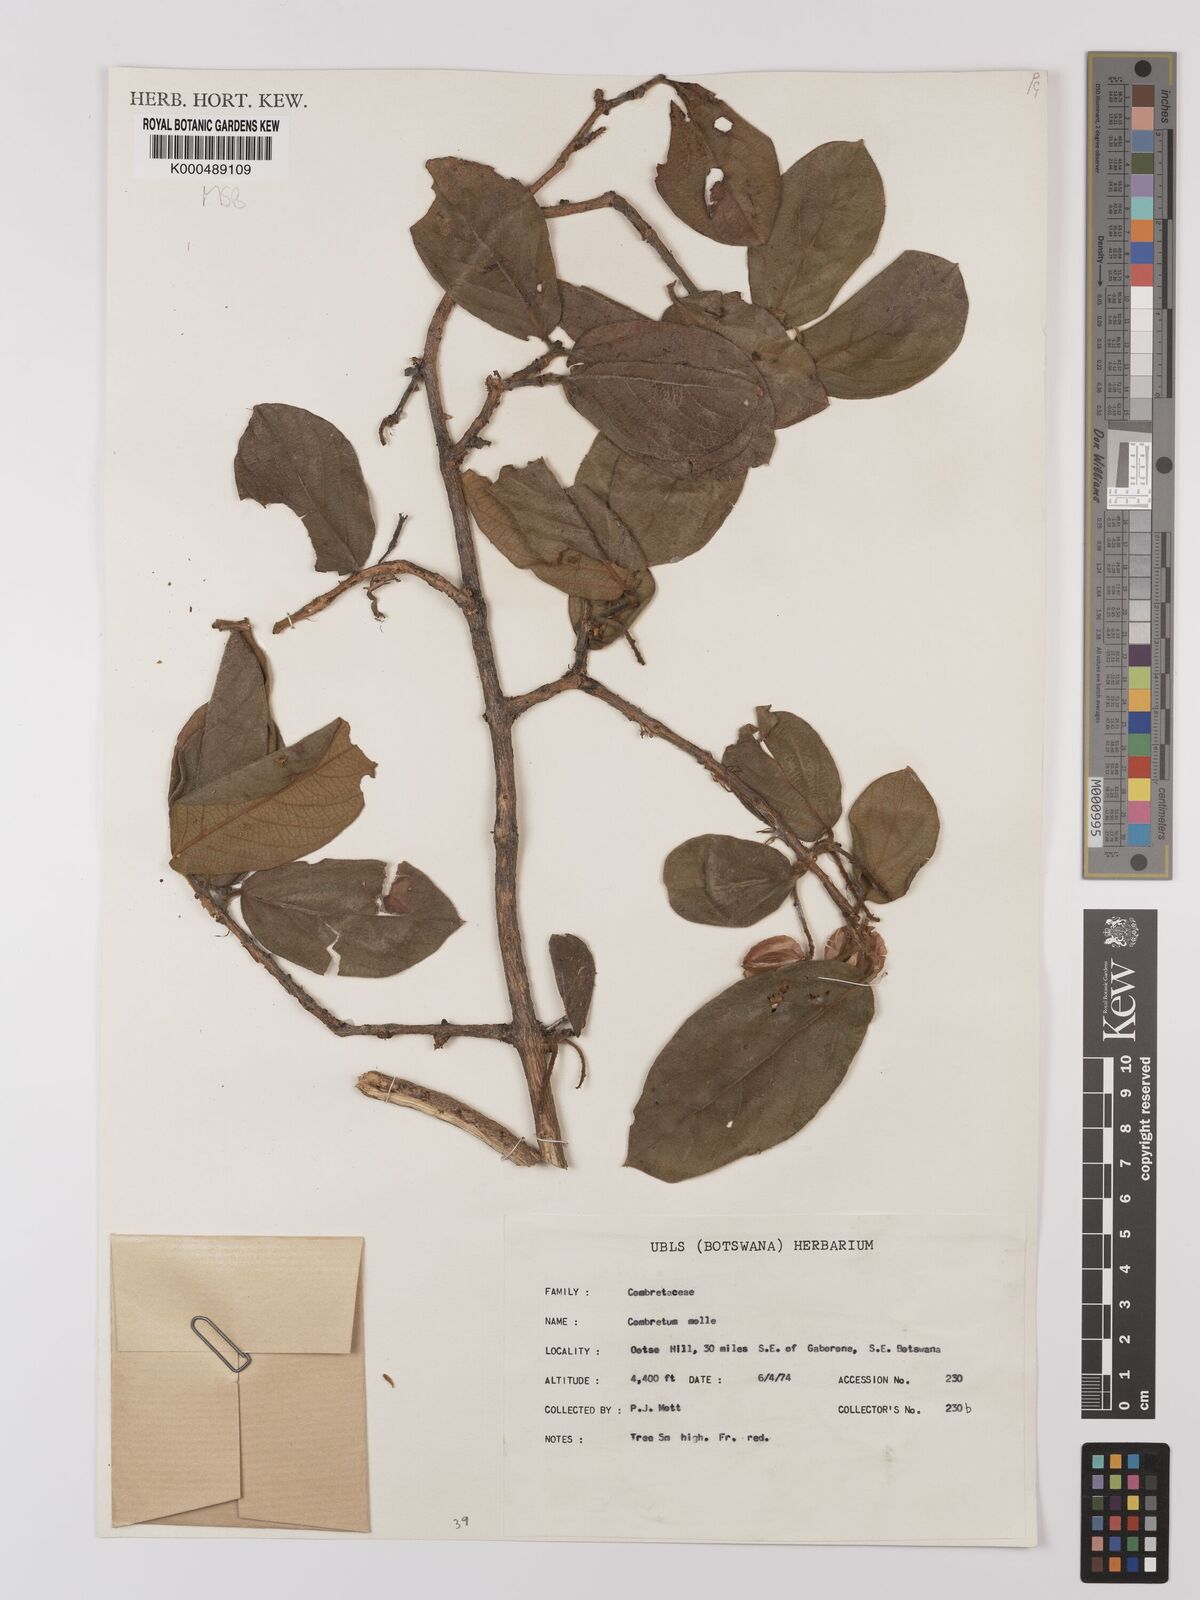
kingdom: Plantae
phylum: Tracheophyta
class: Magnoliopsida
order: Myrtales
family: Combretaceae
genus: Combretum
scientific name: Combretum molle
